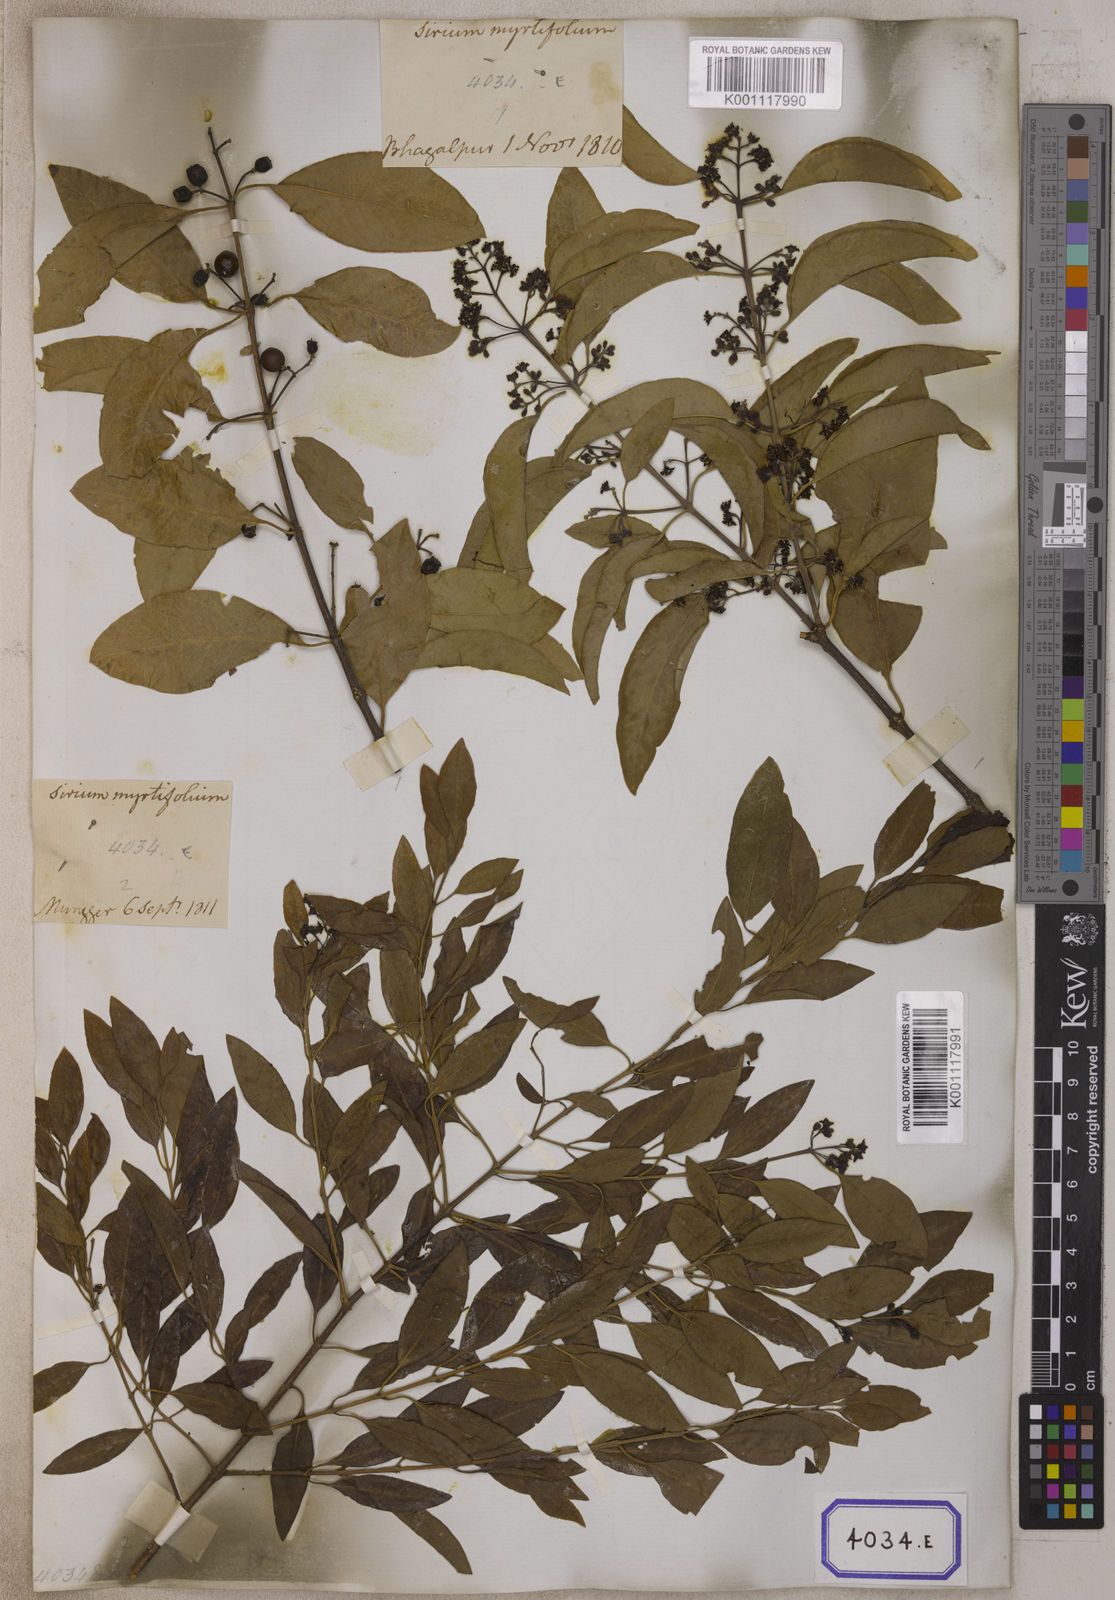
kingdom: Plantae
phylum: Tracheophyta
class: Magnoliopsida
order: Santalales
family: Santalaceae
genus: Santalum
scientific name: Santalum album
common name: Indian sandalwood
